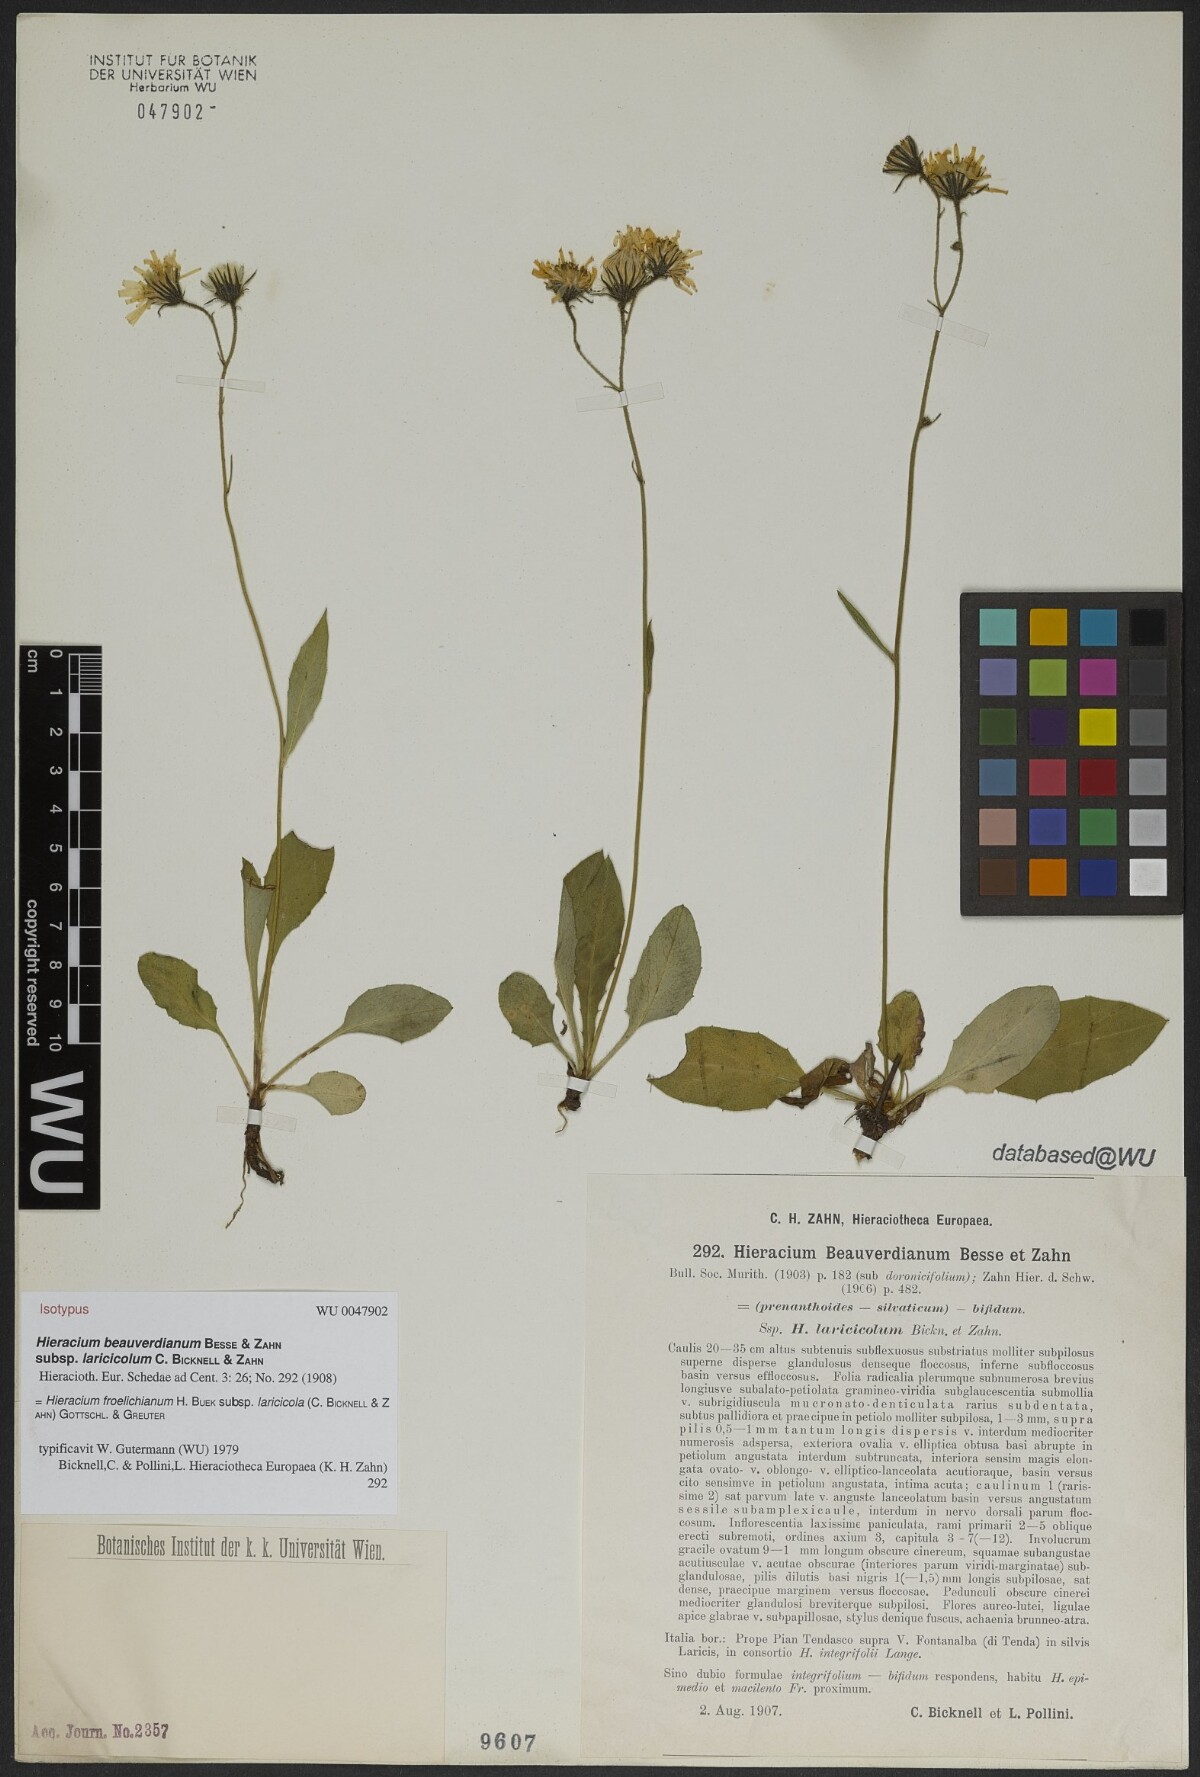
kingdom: Plantae
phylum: Tracheophyta
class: Magnoliopsida
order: Asterales
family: Asteraceae
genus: Hieracium
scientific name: Hieracium froelichianum
